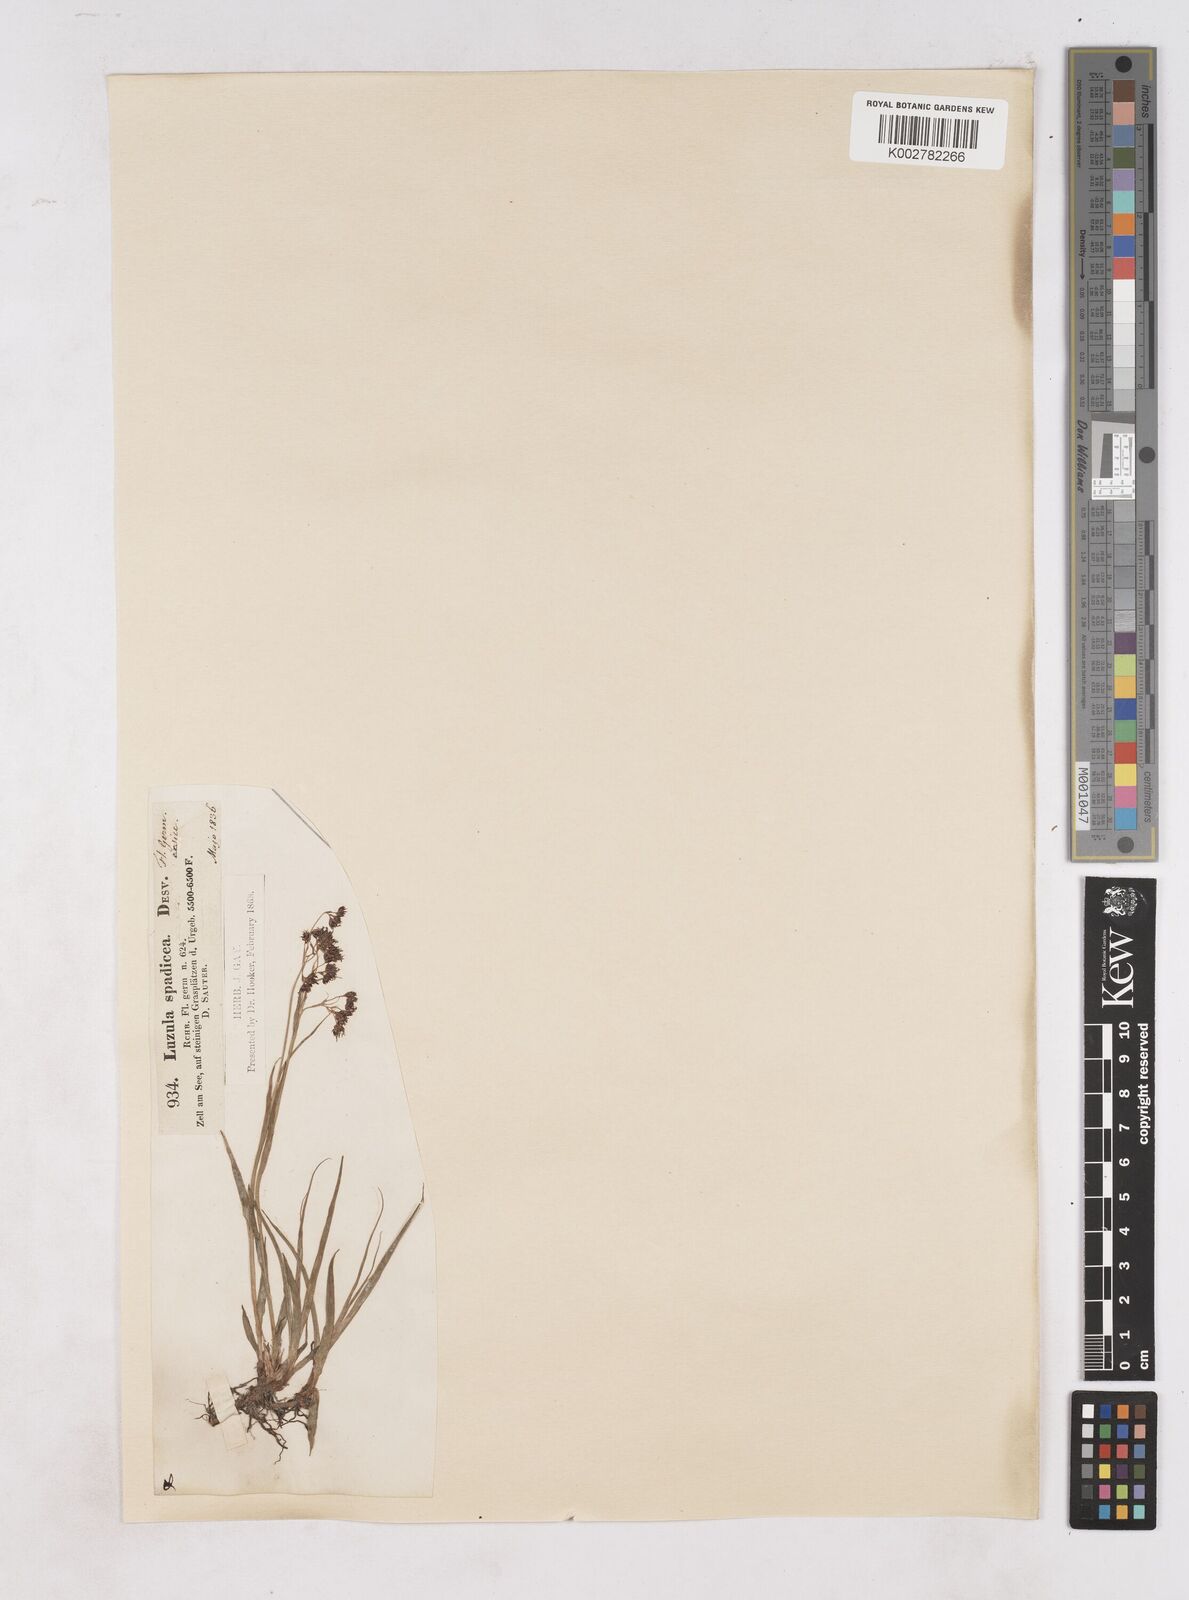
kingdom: Plantae
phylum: Tracheophyta
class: Liliopsida
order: Poales
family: Juncaceae
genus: Luzula
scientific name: Luzula alpinopilosa
